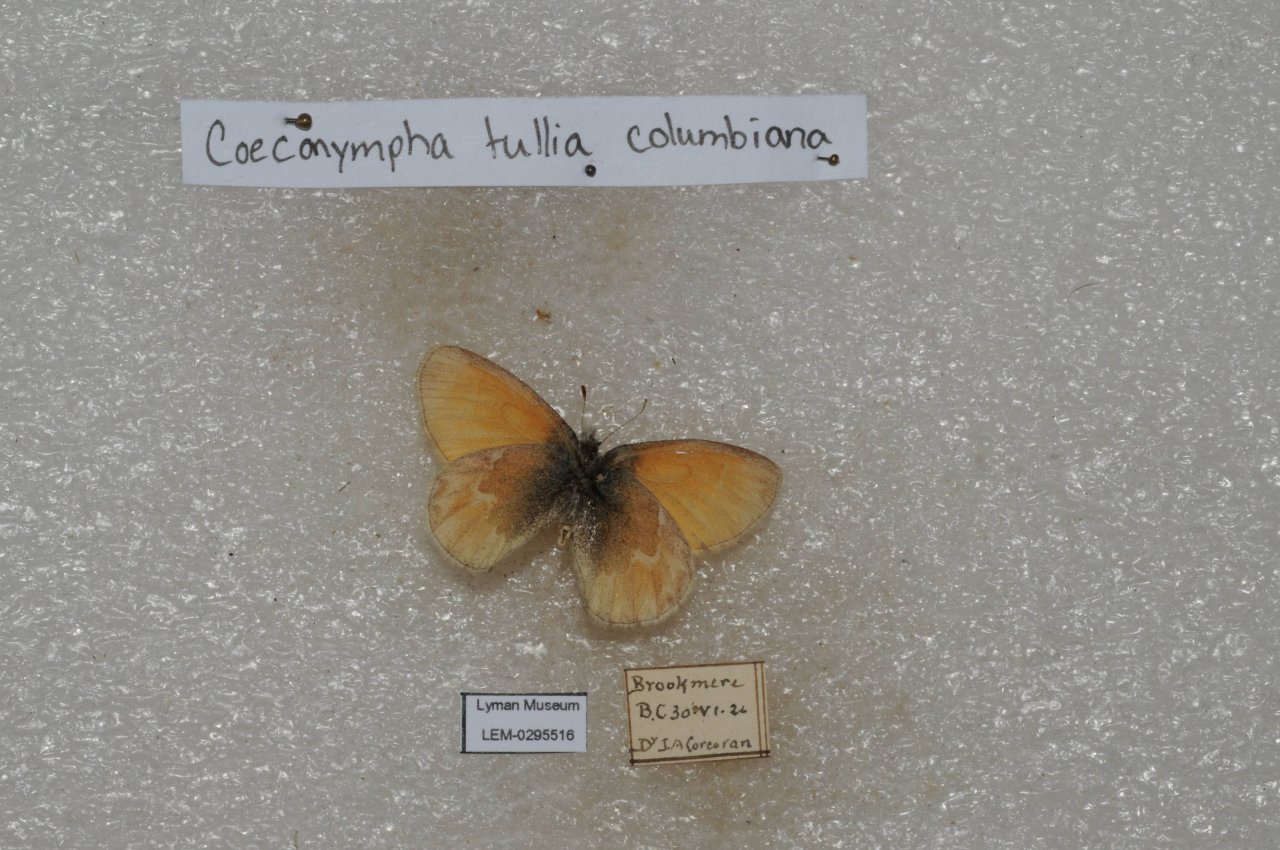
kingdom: Animalia
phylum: Arthropoda
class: Insecta
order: Lepidoptera
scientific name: Lepidoptera
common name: Butterflies
